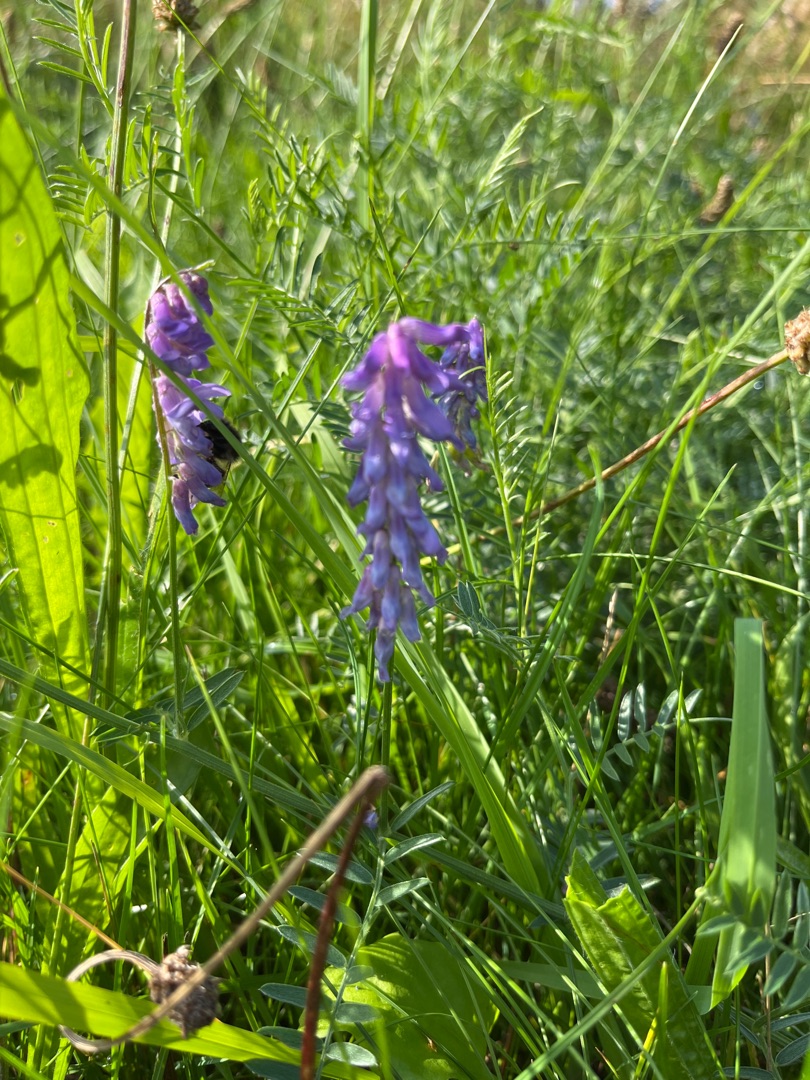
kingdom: Plantae
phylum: Tracheophyta
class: Magnoliopsida
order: Fabales
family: Fabaceae
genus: Vicia
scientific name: Vicia cracca
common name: Muse-vikke
